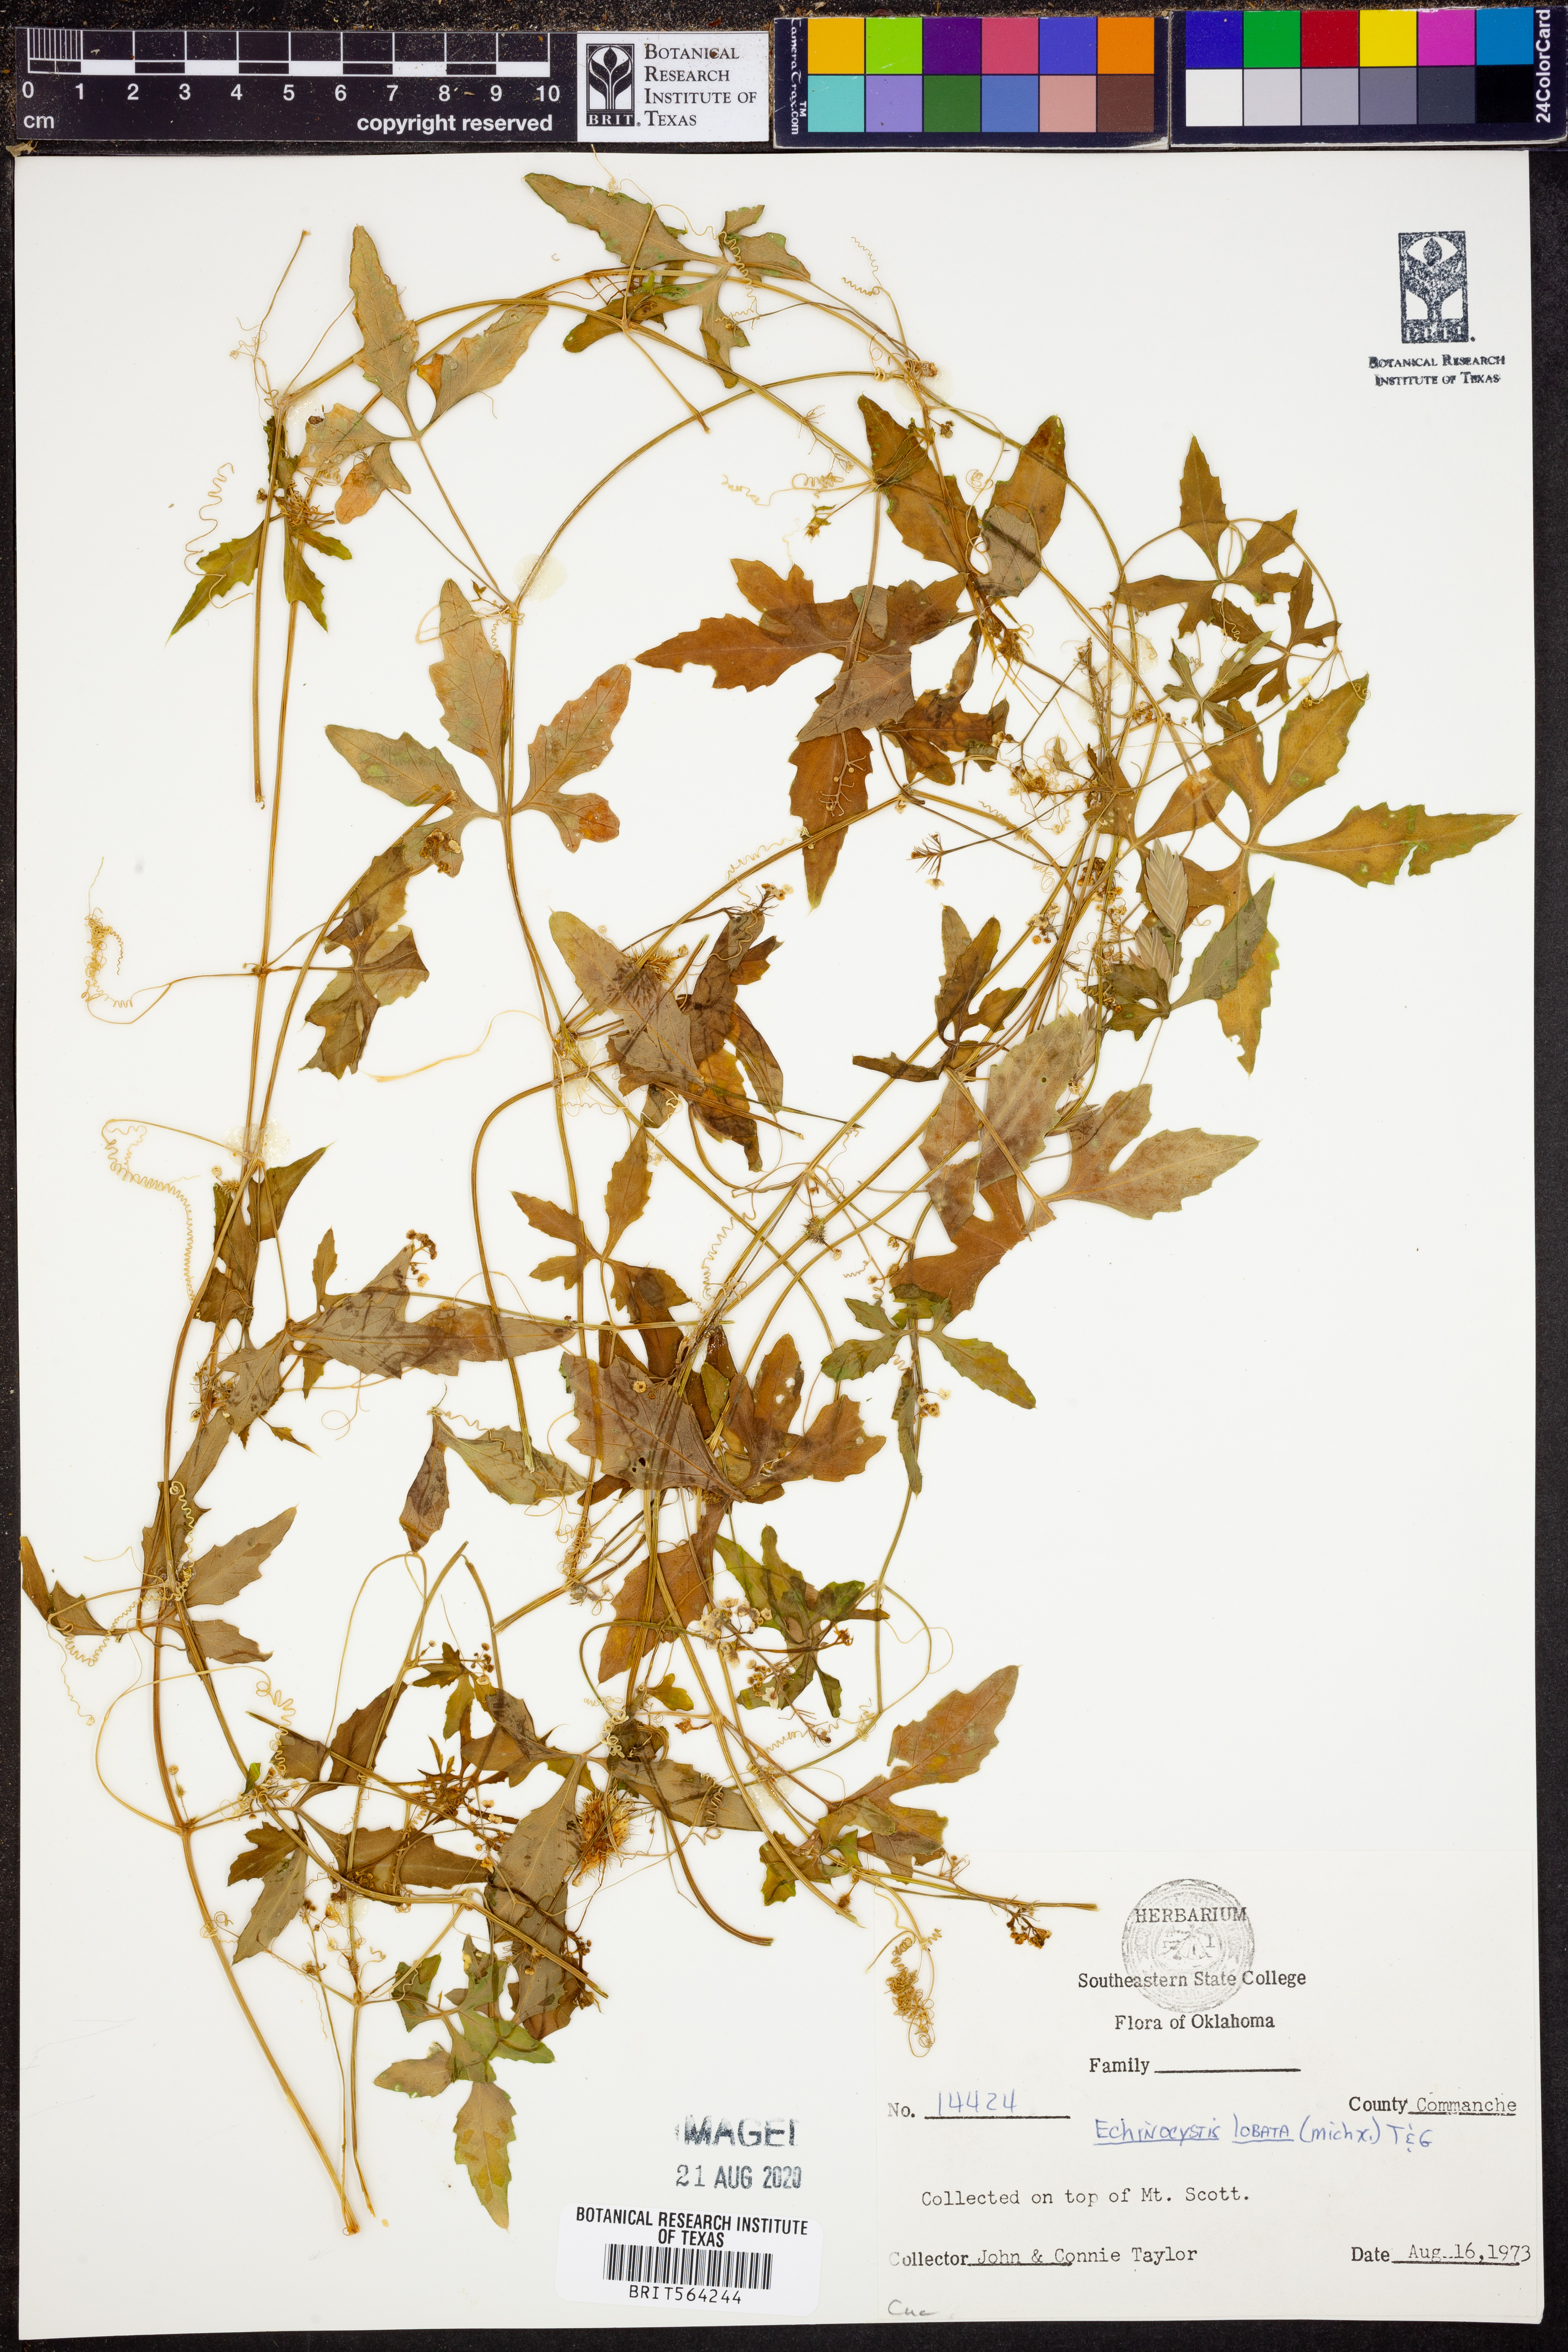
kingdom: Plantae
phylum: Tracheophyta
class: Magnoliopsida
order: Cucurbitales
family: Cucurbitaceae
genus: Echinocystis
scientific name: Echinocystis lobata
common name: Wild cucumber
